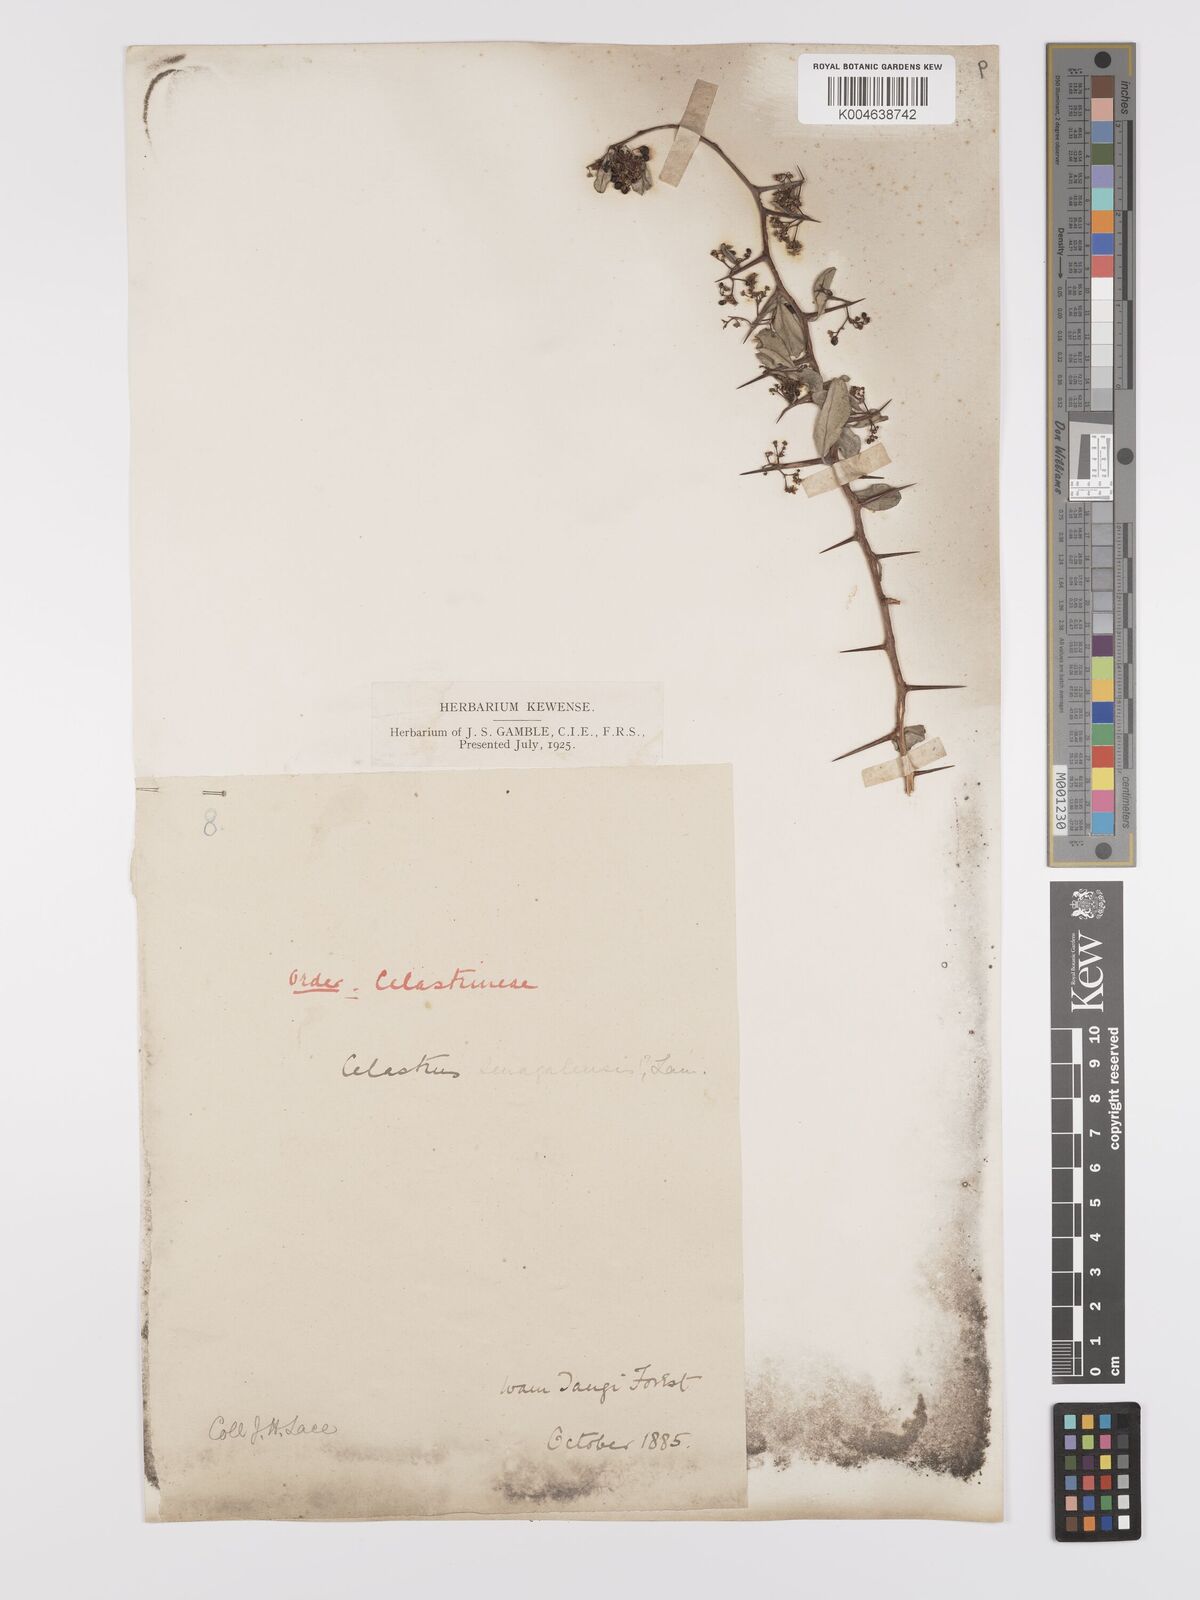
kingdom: Plantae
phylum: Tracheophyta
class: Magnoliopsida
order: Celastrales
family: Celastraceae
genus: Gymnosporia
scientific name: Gymnosporia senegalensis
